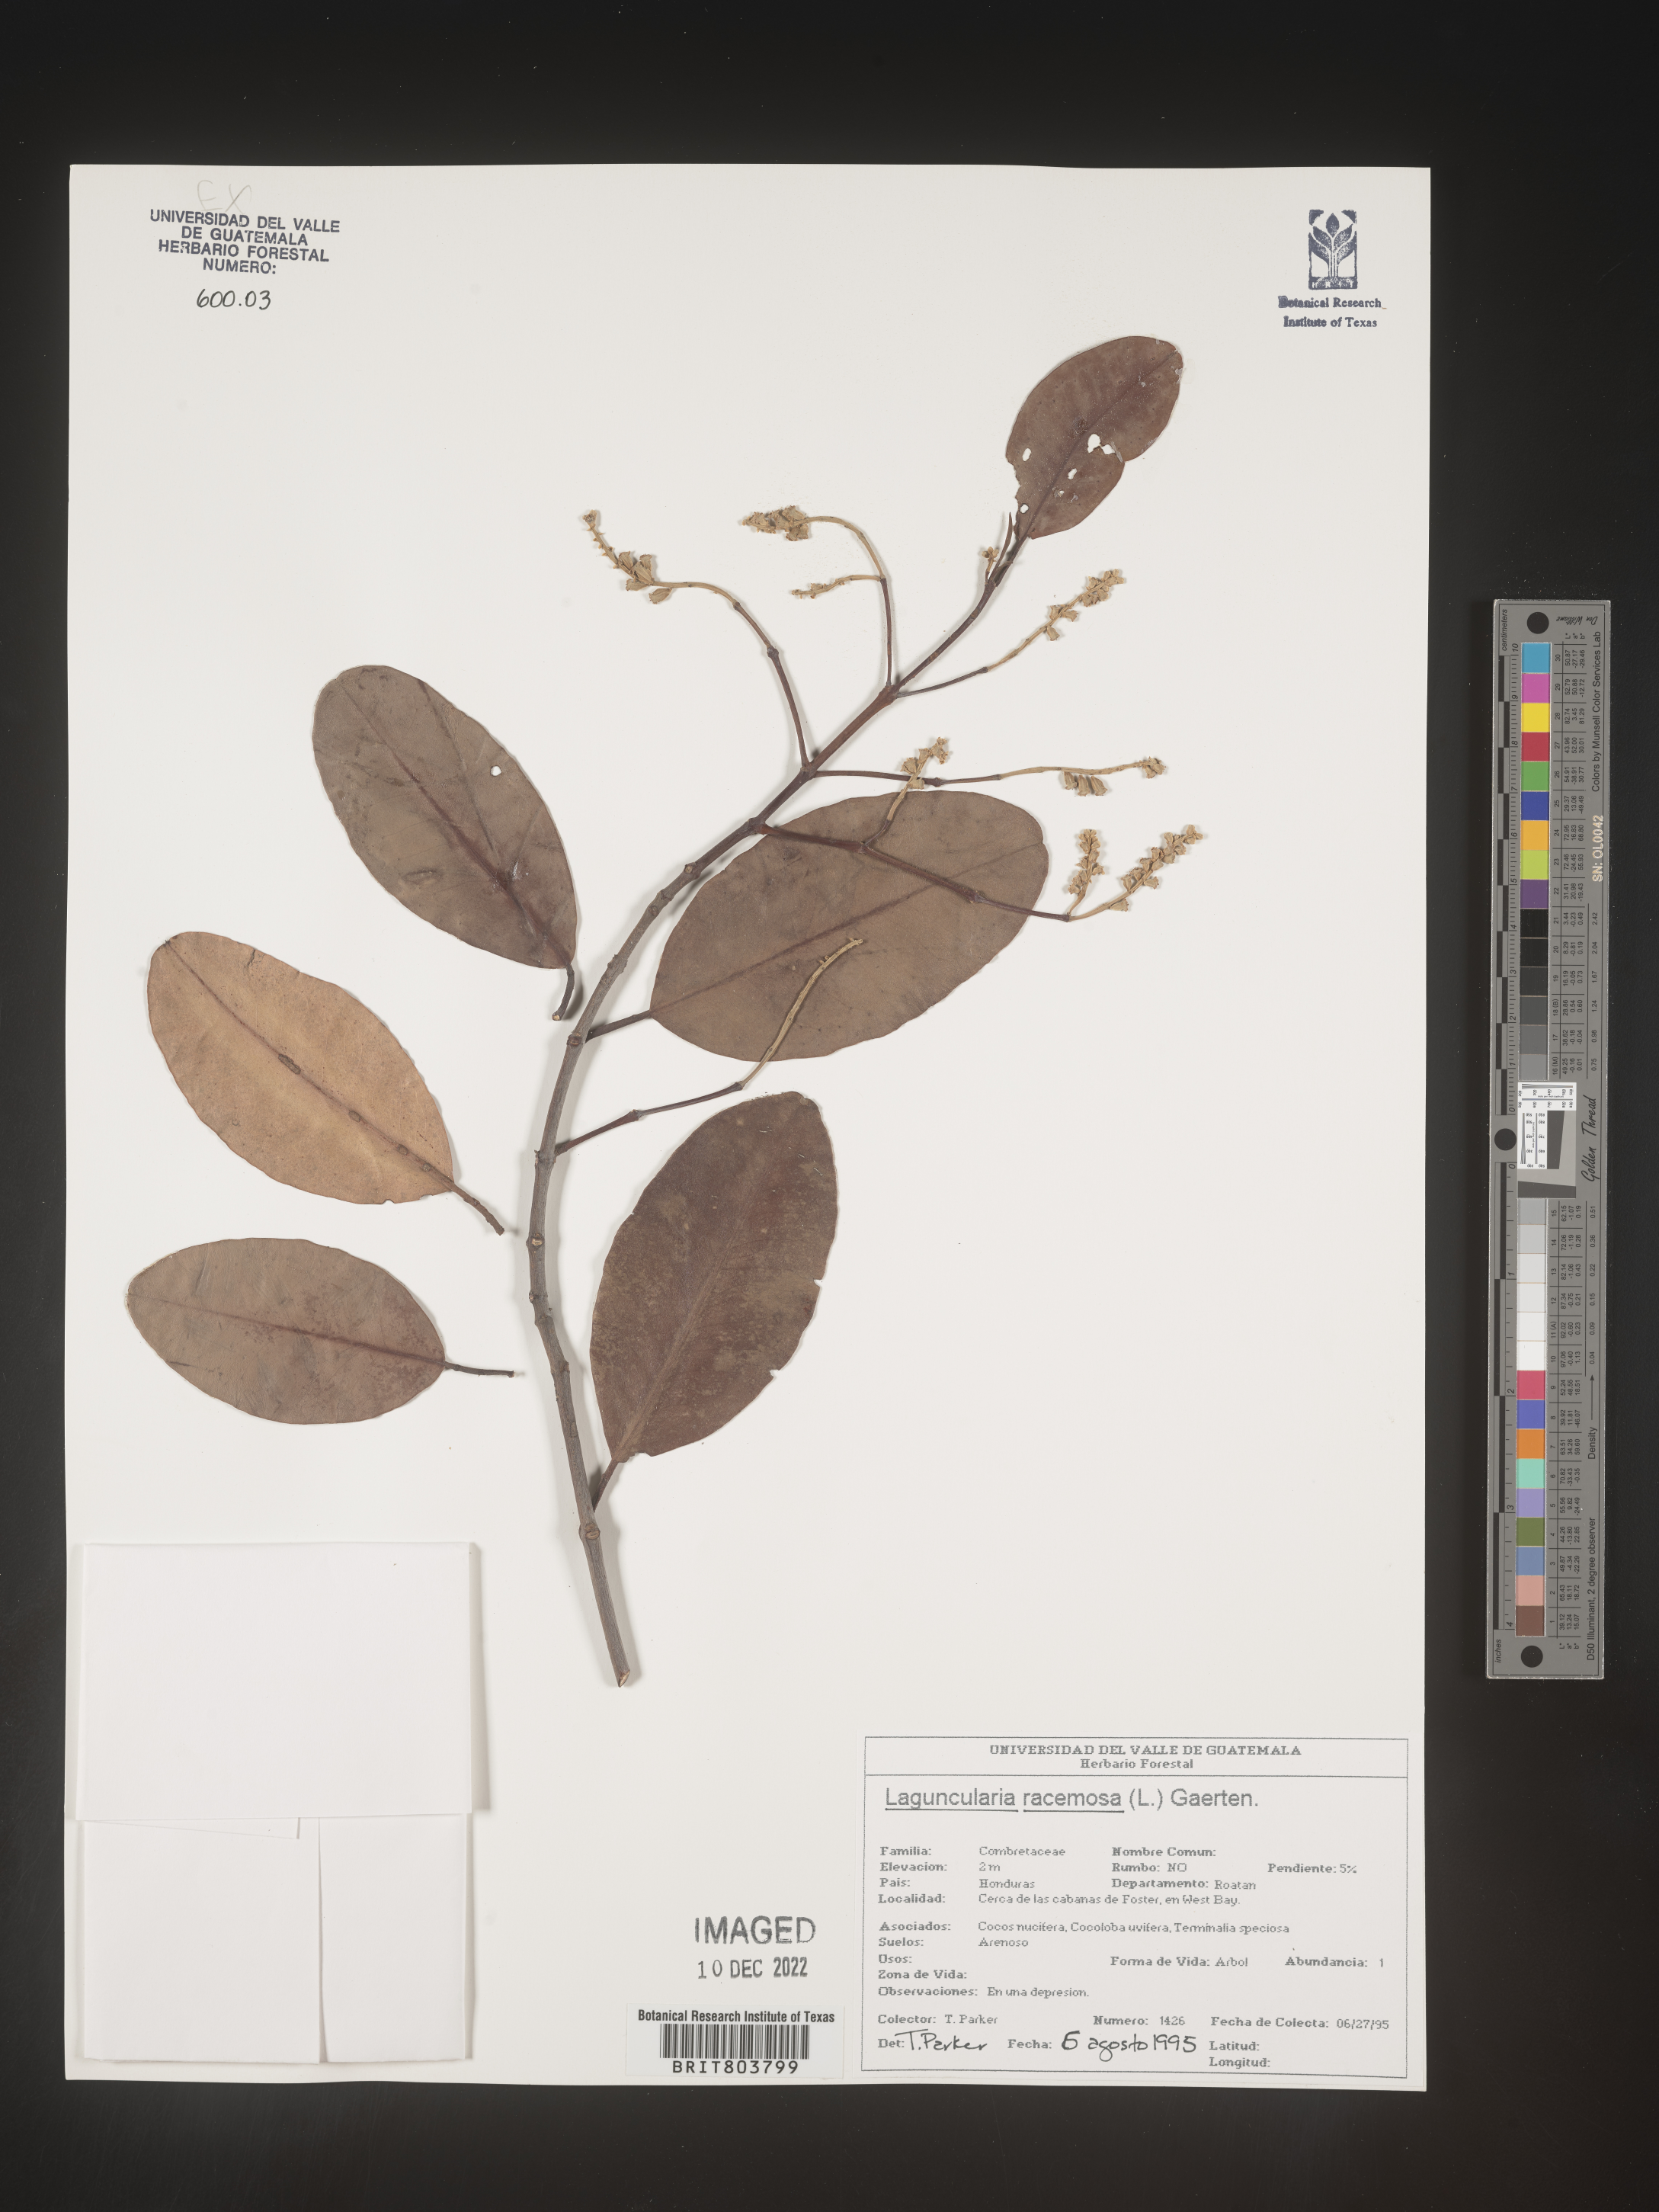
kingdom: Plantae
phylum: Tracheophyta
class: Magnoliopsida
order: Myrtales
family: Combretaceae
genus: Laguncularia
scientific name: Laguncularia
